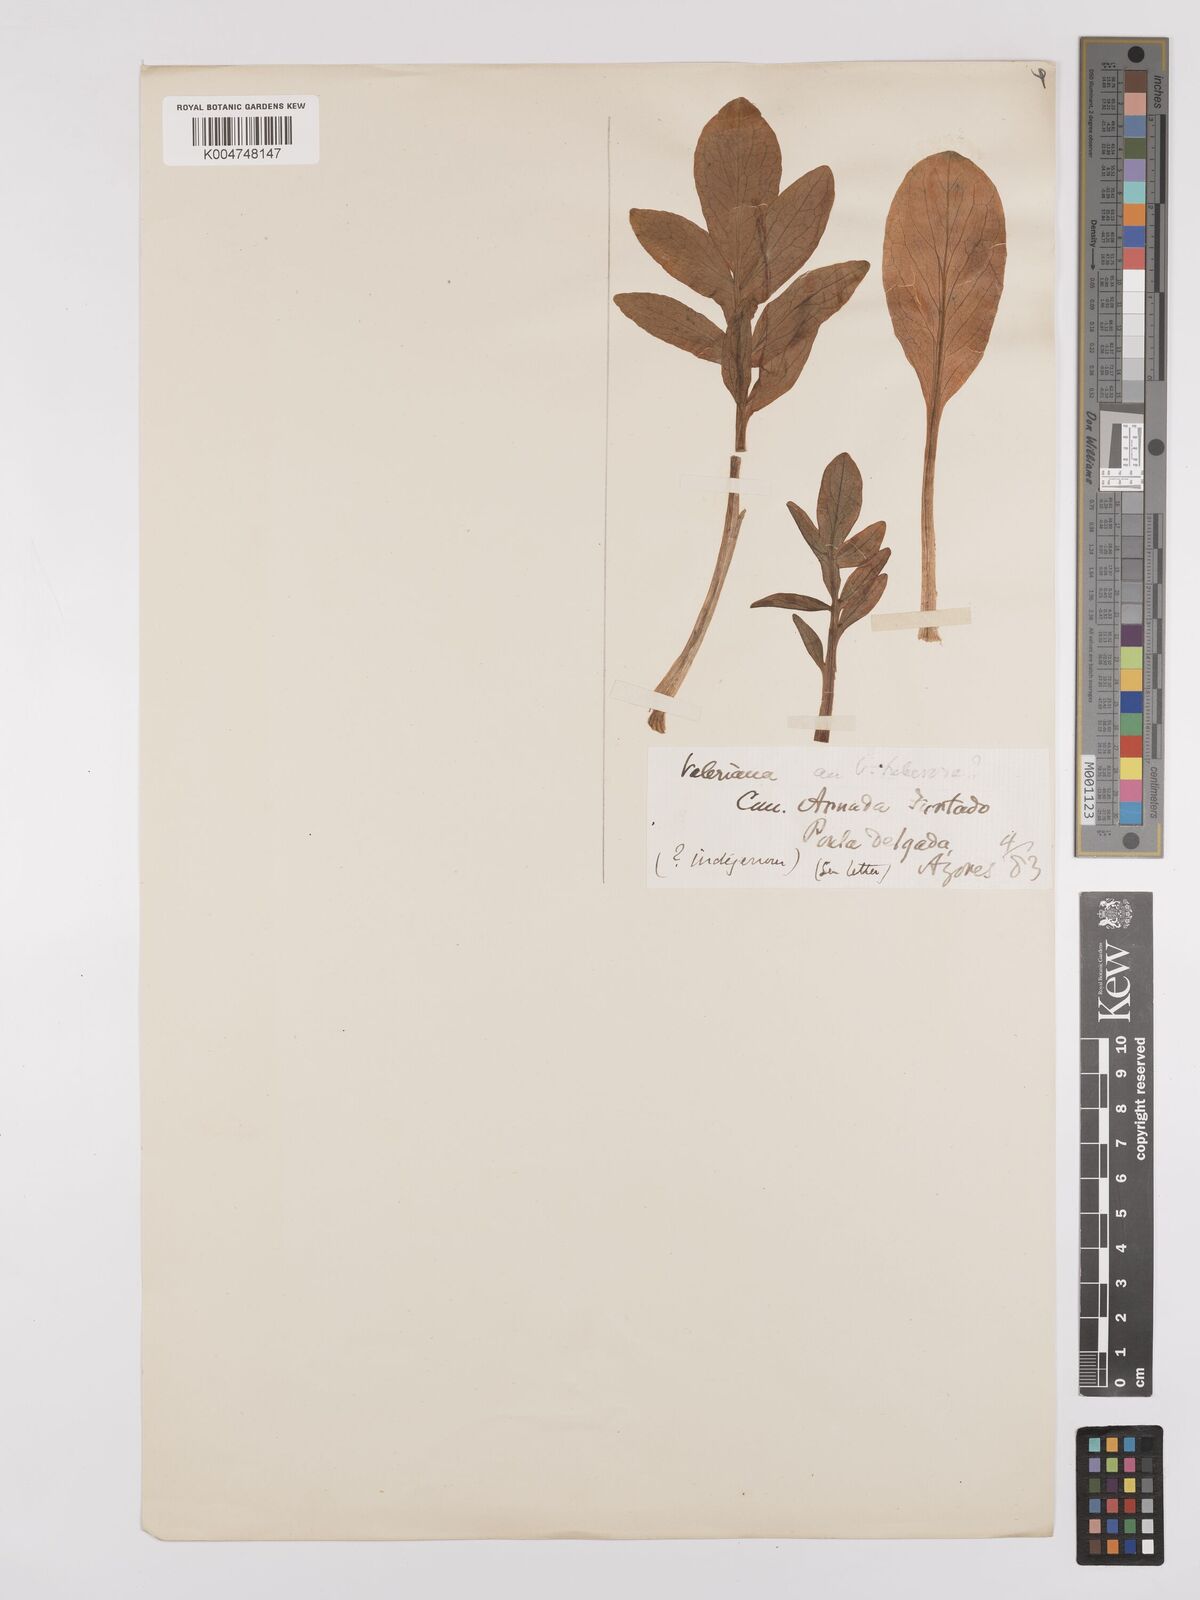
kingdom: Plantae
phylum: Tracheophyta
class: Magnoliopsida
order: Dipsacales
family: Caprifoliaceae
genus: Valeriana
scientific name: Valeriana tuberosa
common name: Tuberous valerian
